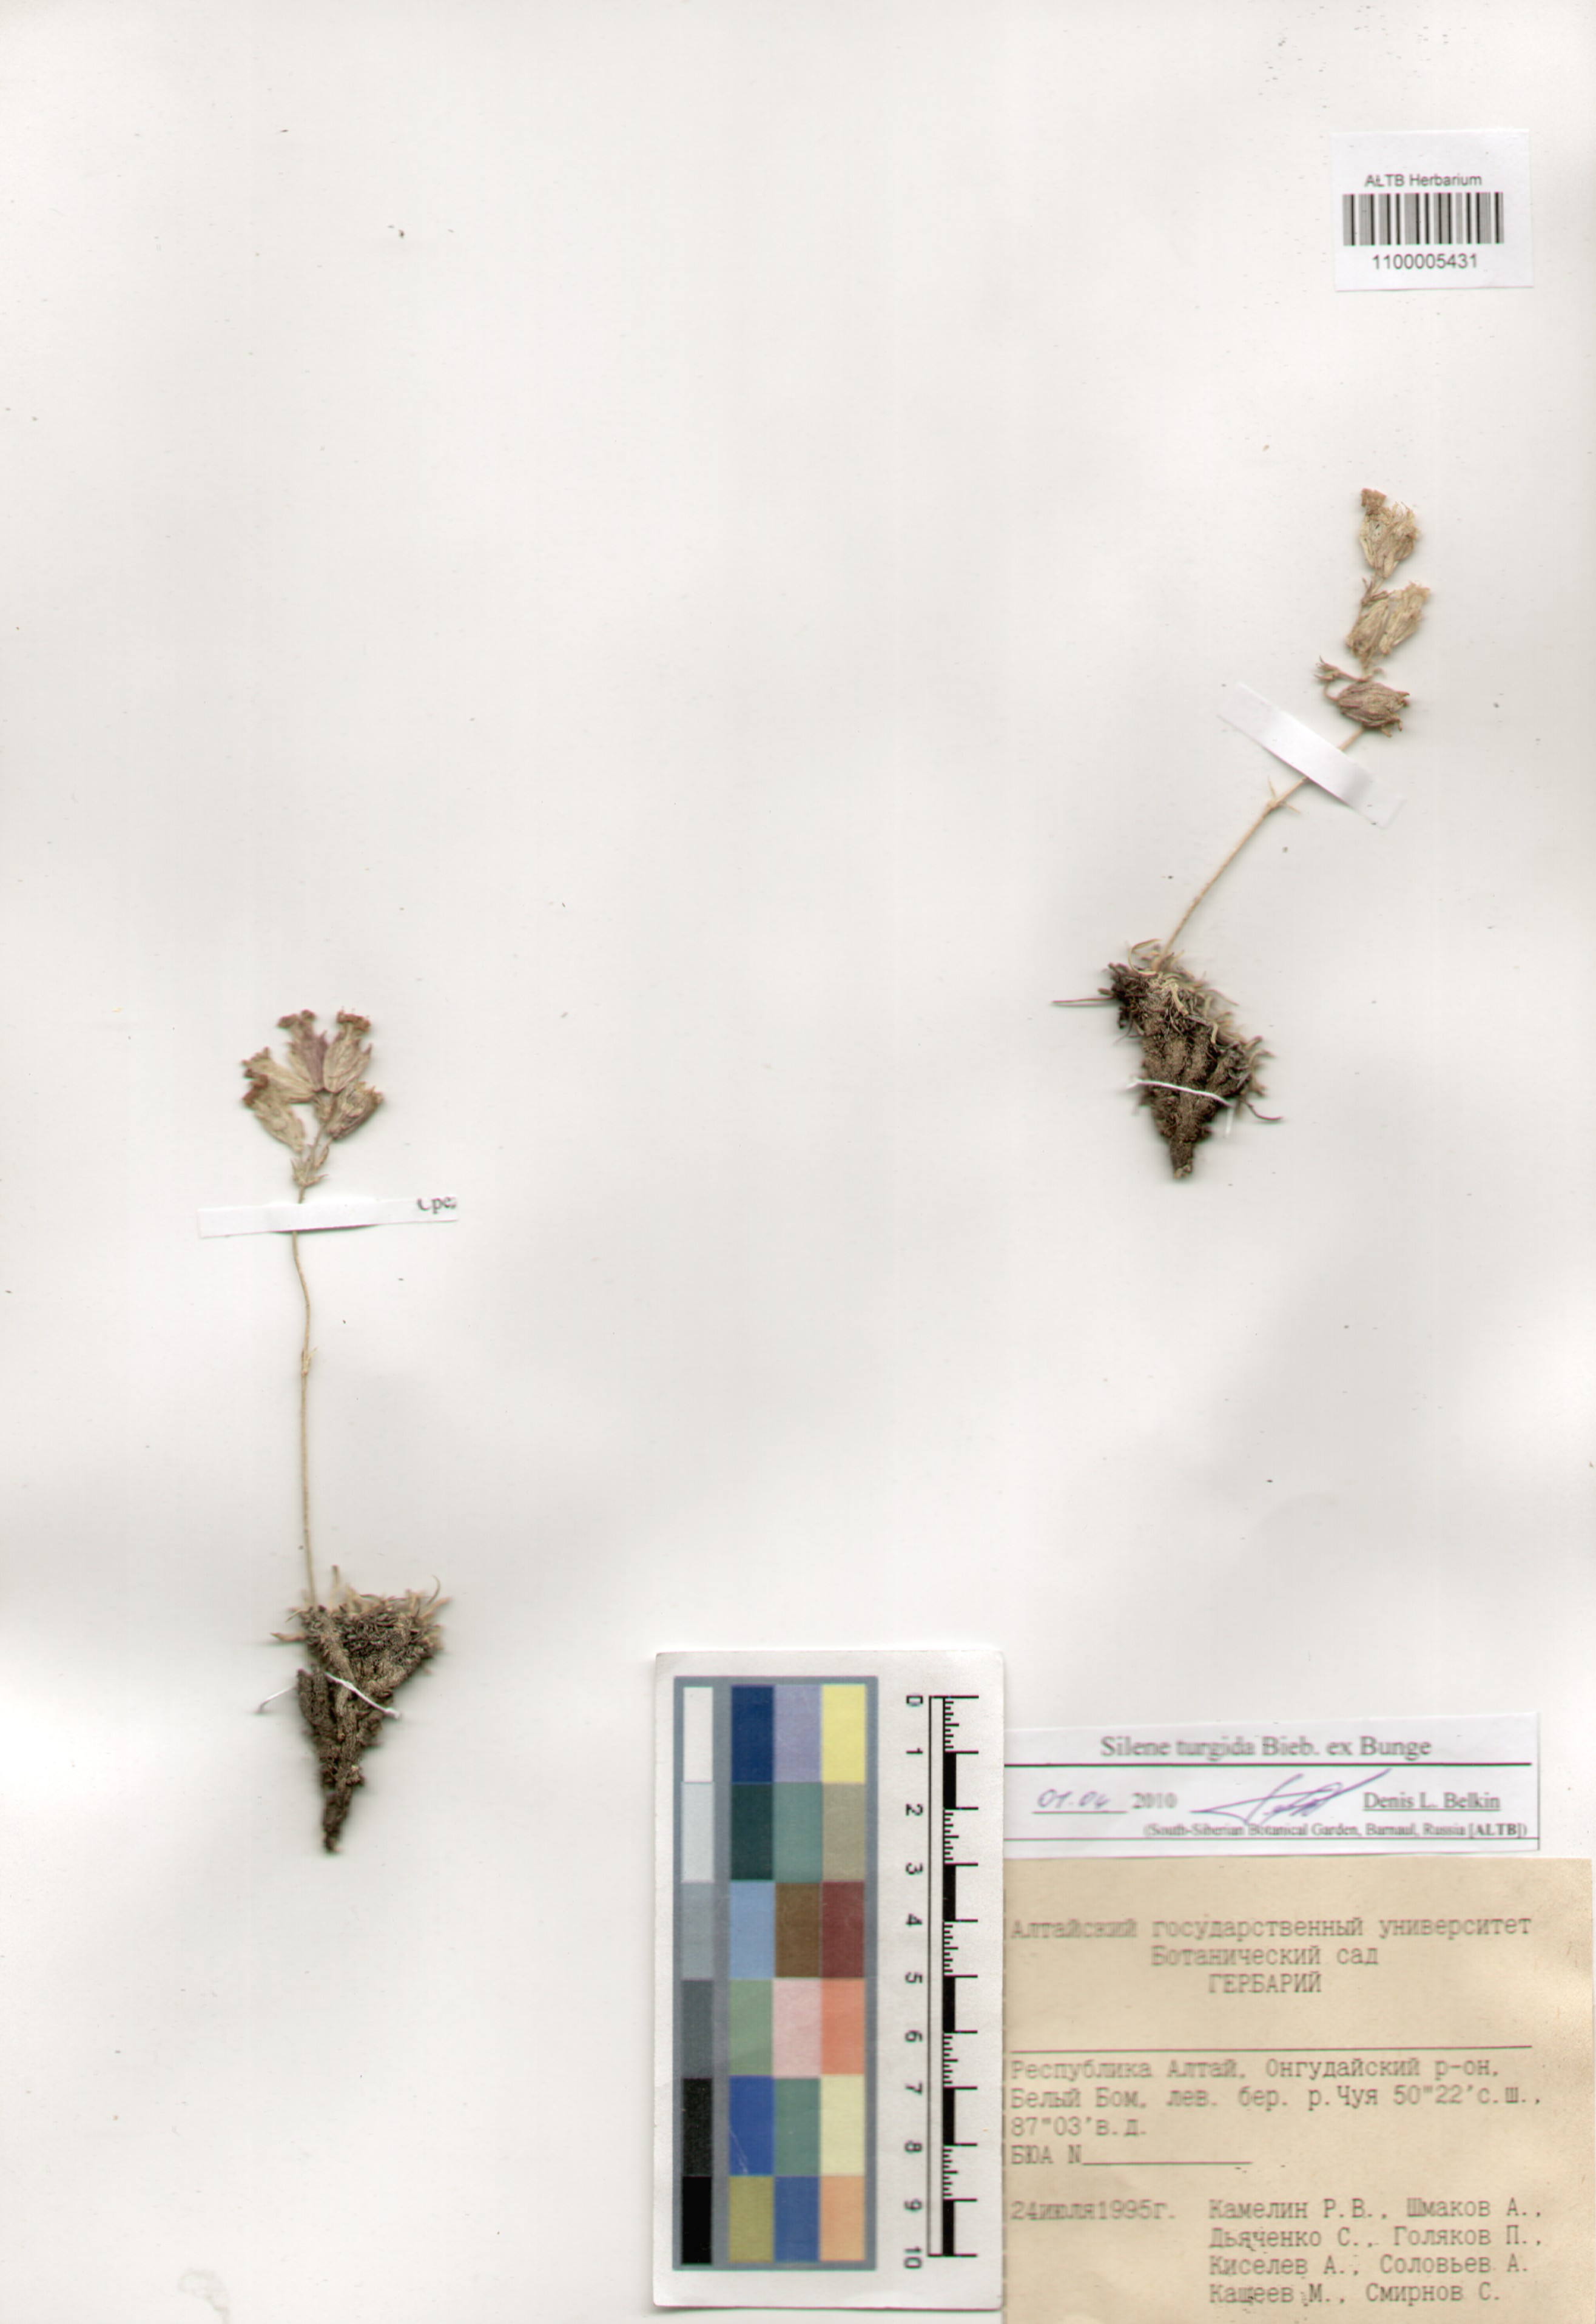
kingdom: Plantae
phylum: Tracheophyta
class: Magnoliopsida
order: Caryophyllales
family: Caryophyllaceae
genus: Silene
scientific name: Silene turgida
